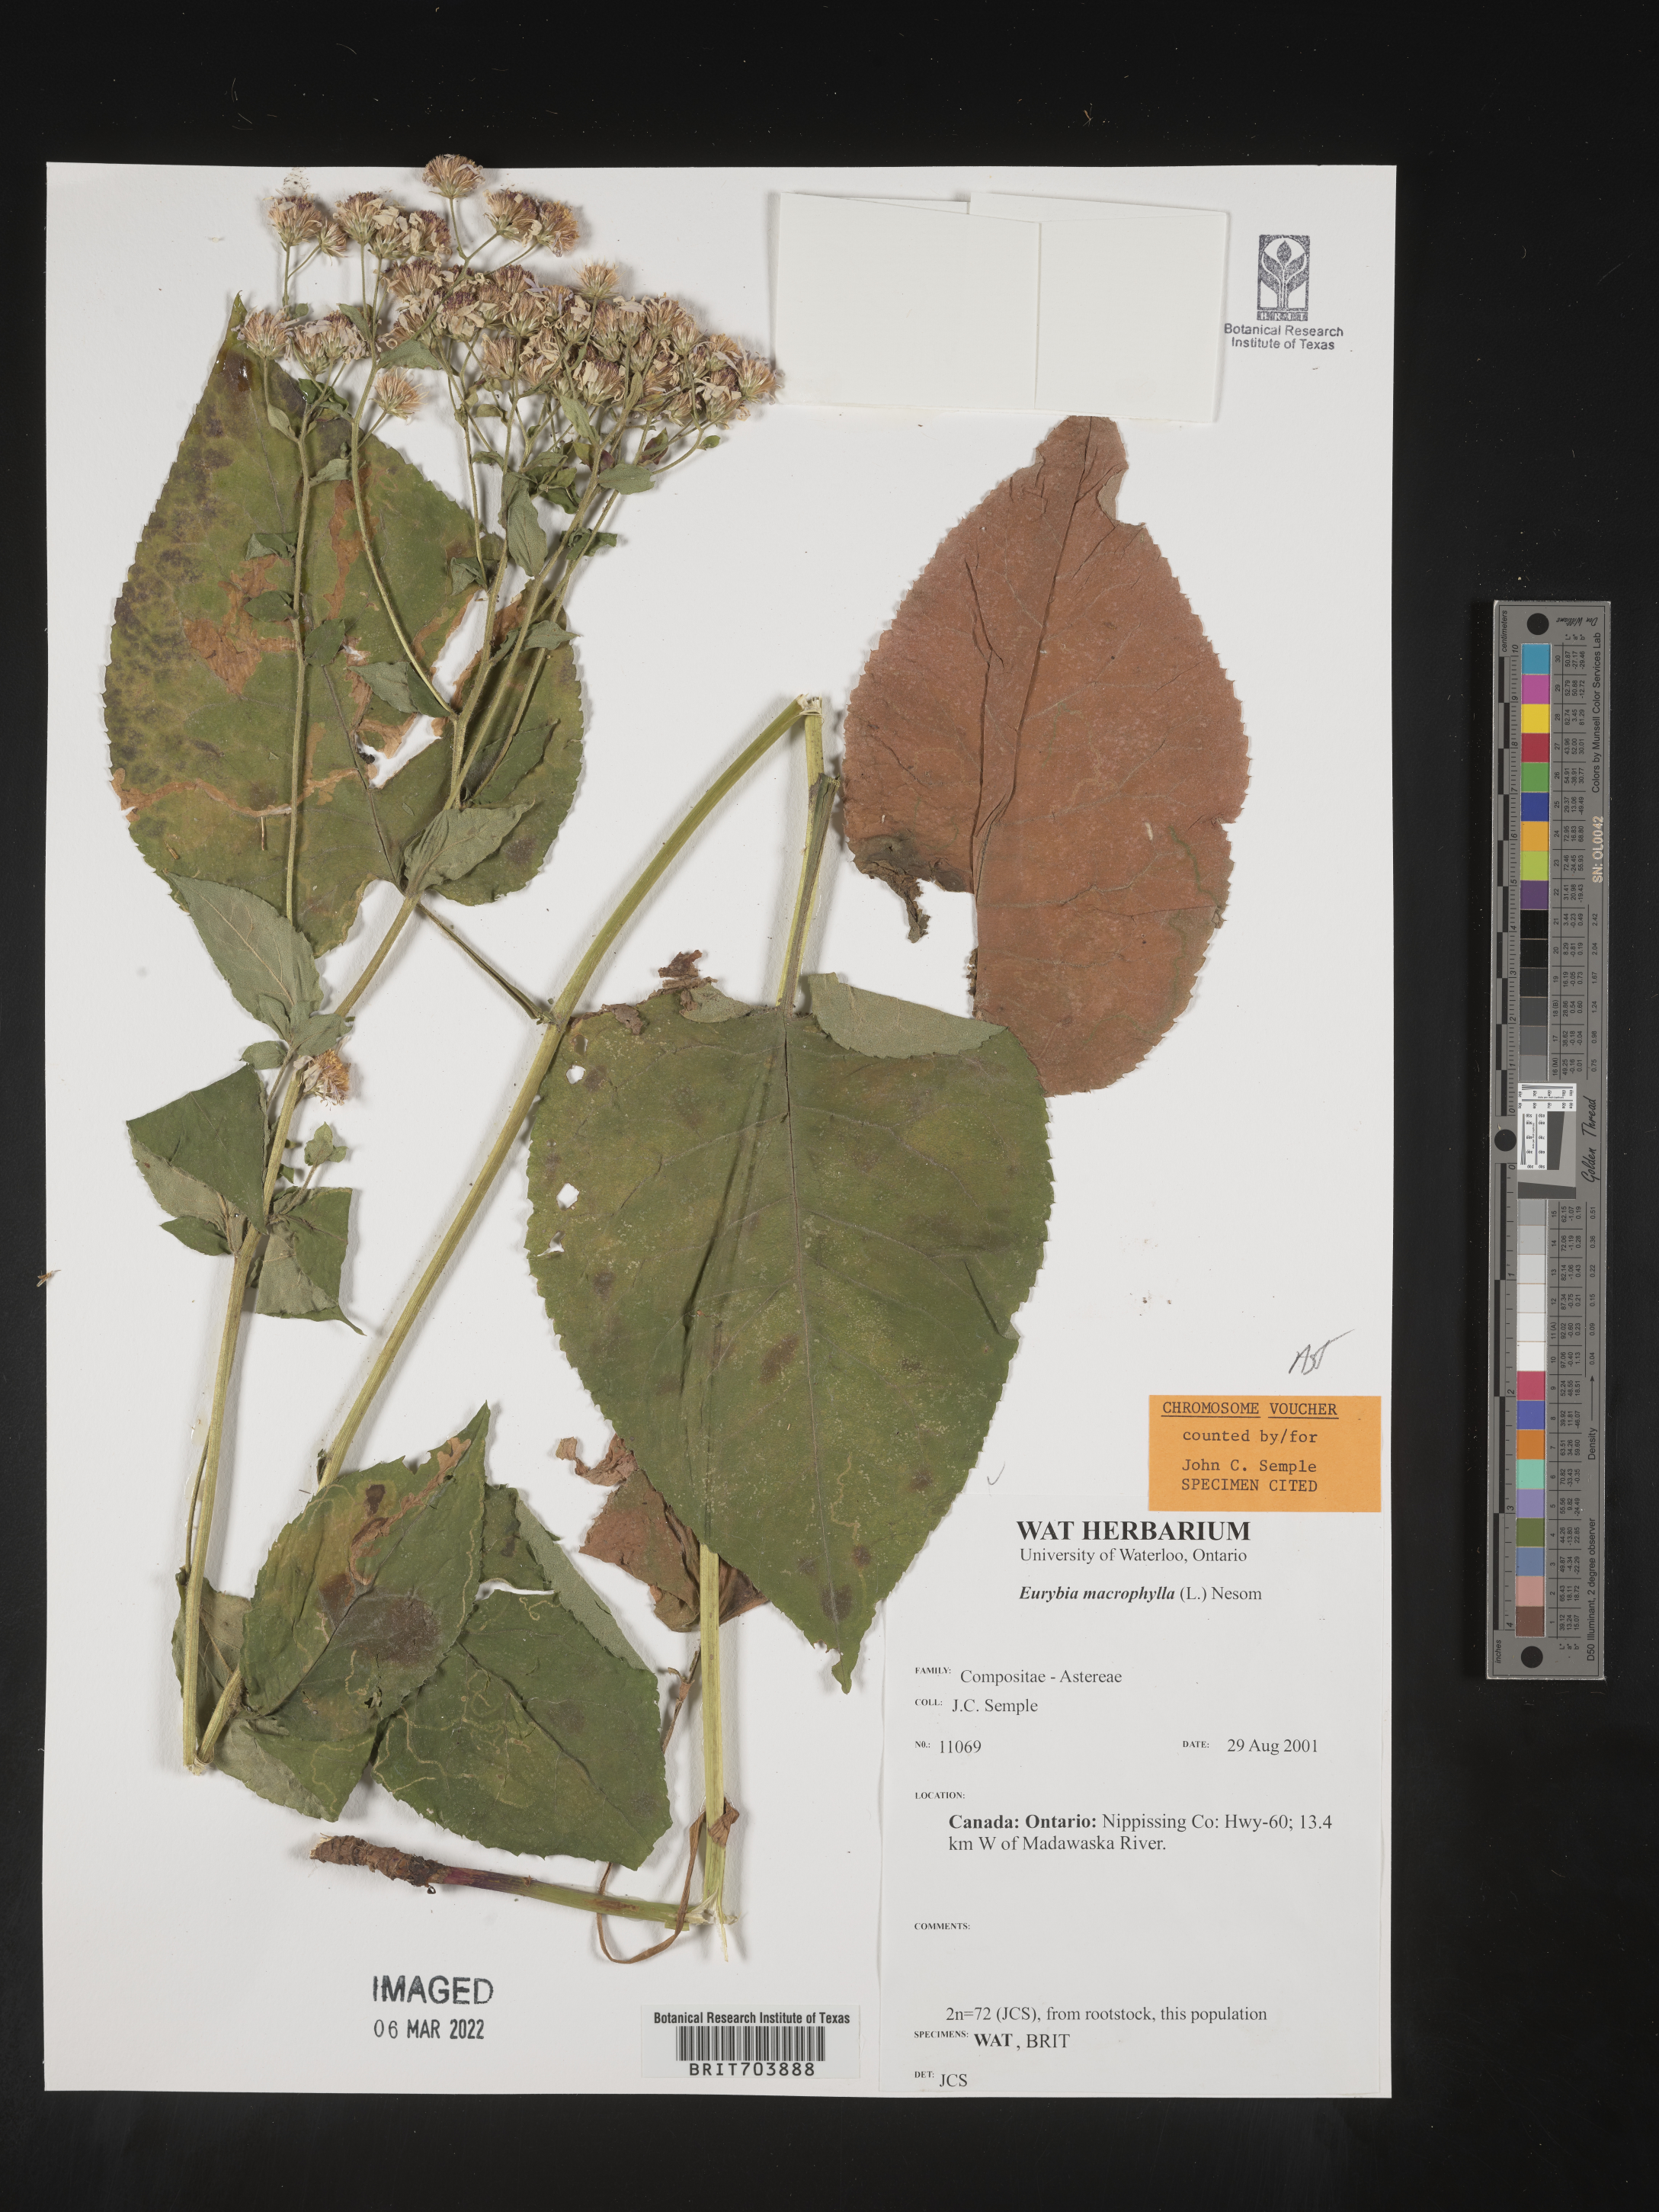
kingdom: Plantae
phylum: Tracheophyta
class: Magnoliopsida
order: Asterales
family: Asteraceae
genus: Eurybia
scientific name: Eurybia macrophylla
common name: Big-leaved aster
